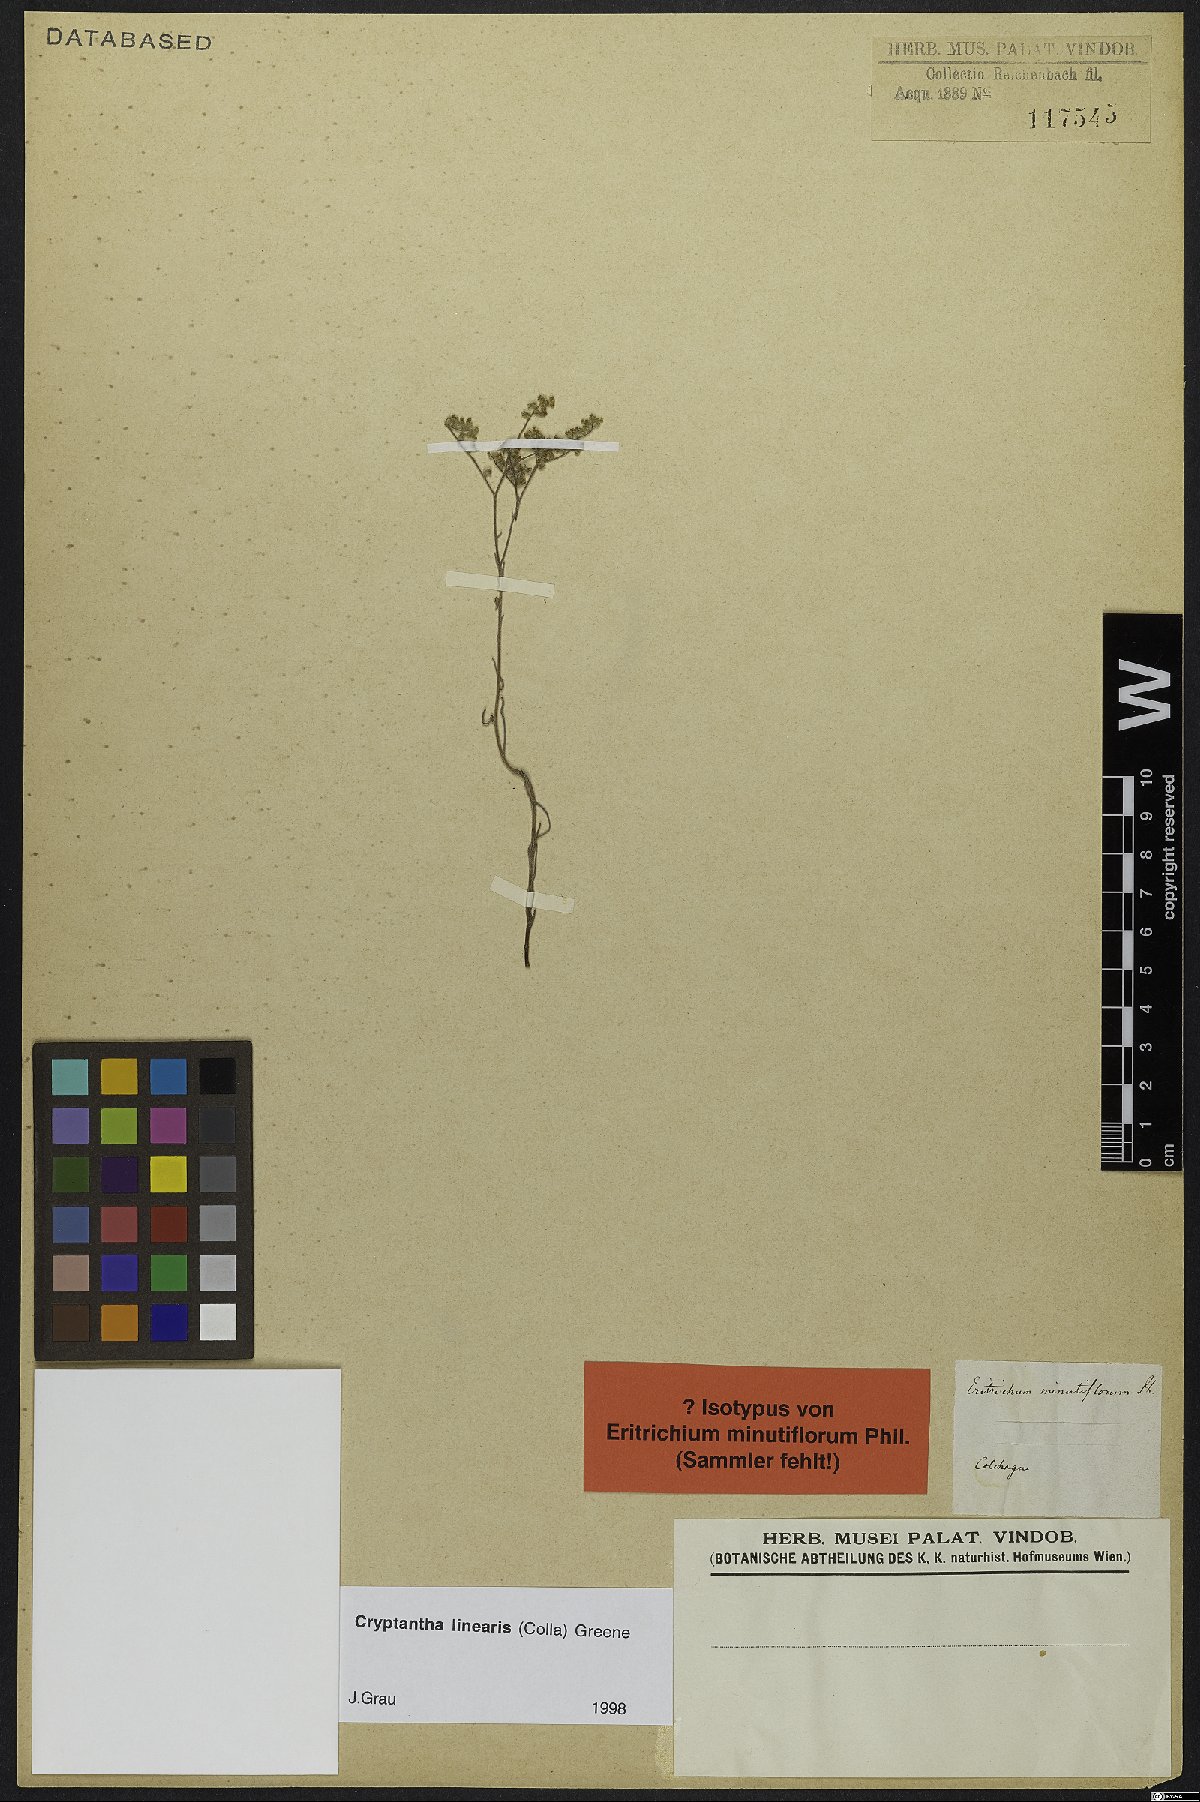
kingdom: Plantae
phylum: Tracheophyta
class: Magnoliopsida
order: Boraginales
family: Boraginaceae
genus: Cryptantha
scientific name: Cryptantha linearis
